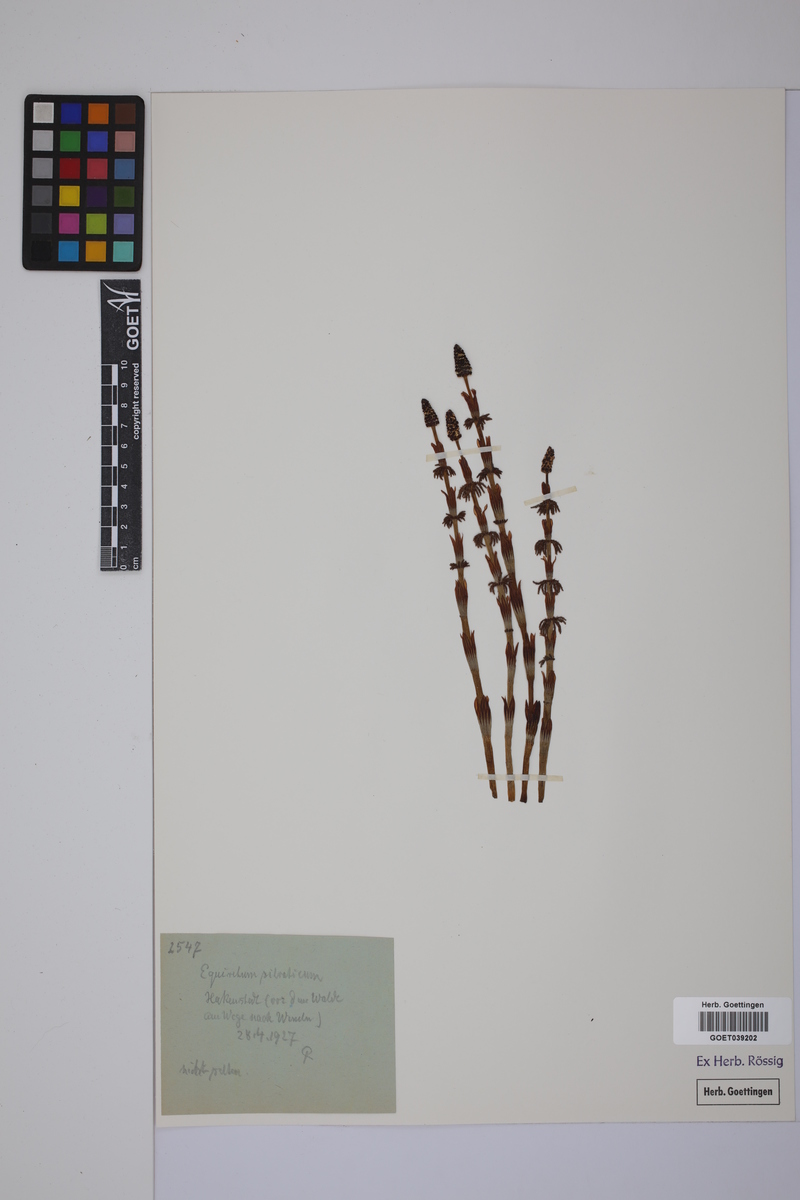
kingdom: Plantae
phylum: Tracheophyta
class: Polypodiopsida
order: Equisetales
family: Equisetaceae
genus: Equisetum
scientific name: Equisetum sylvaticum
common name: Wood horsetail
